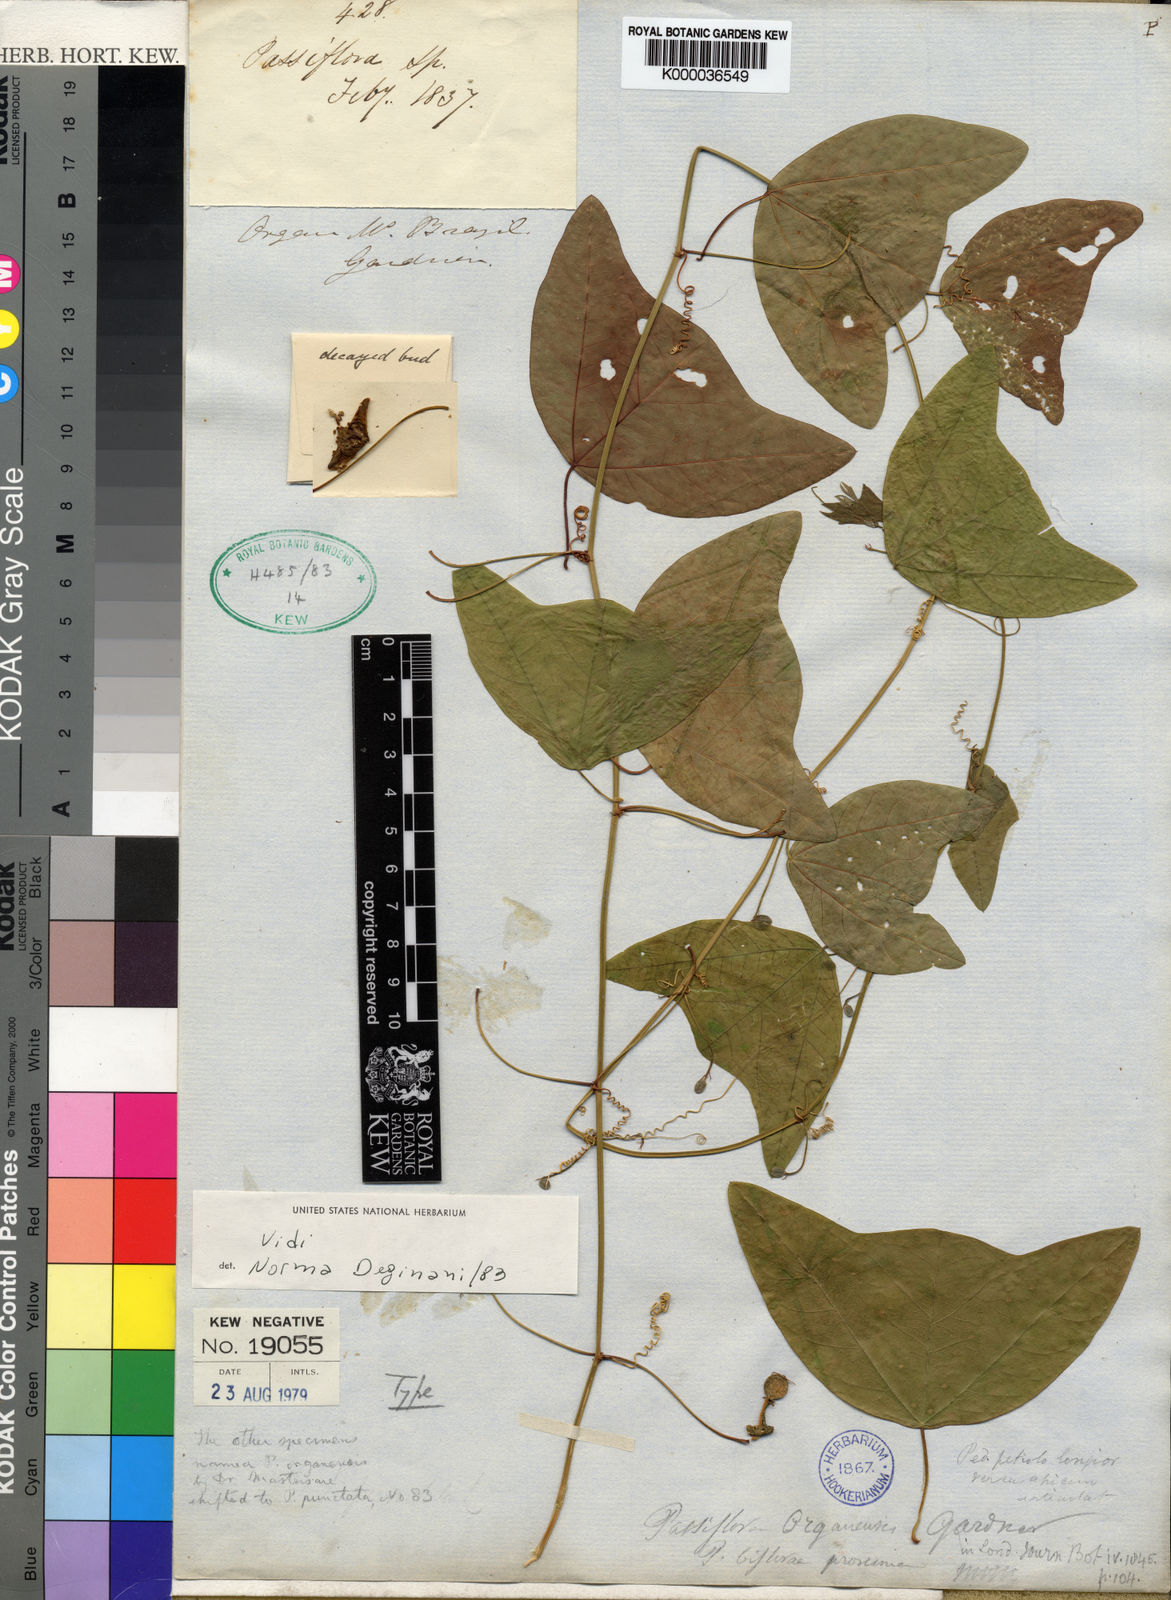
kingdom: Plantae
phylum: Tracheophyta
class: Magnoliopsida
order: Malpighiales
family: Passifloraceae
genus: Passiflora
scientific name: Passiflora porophylla
